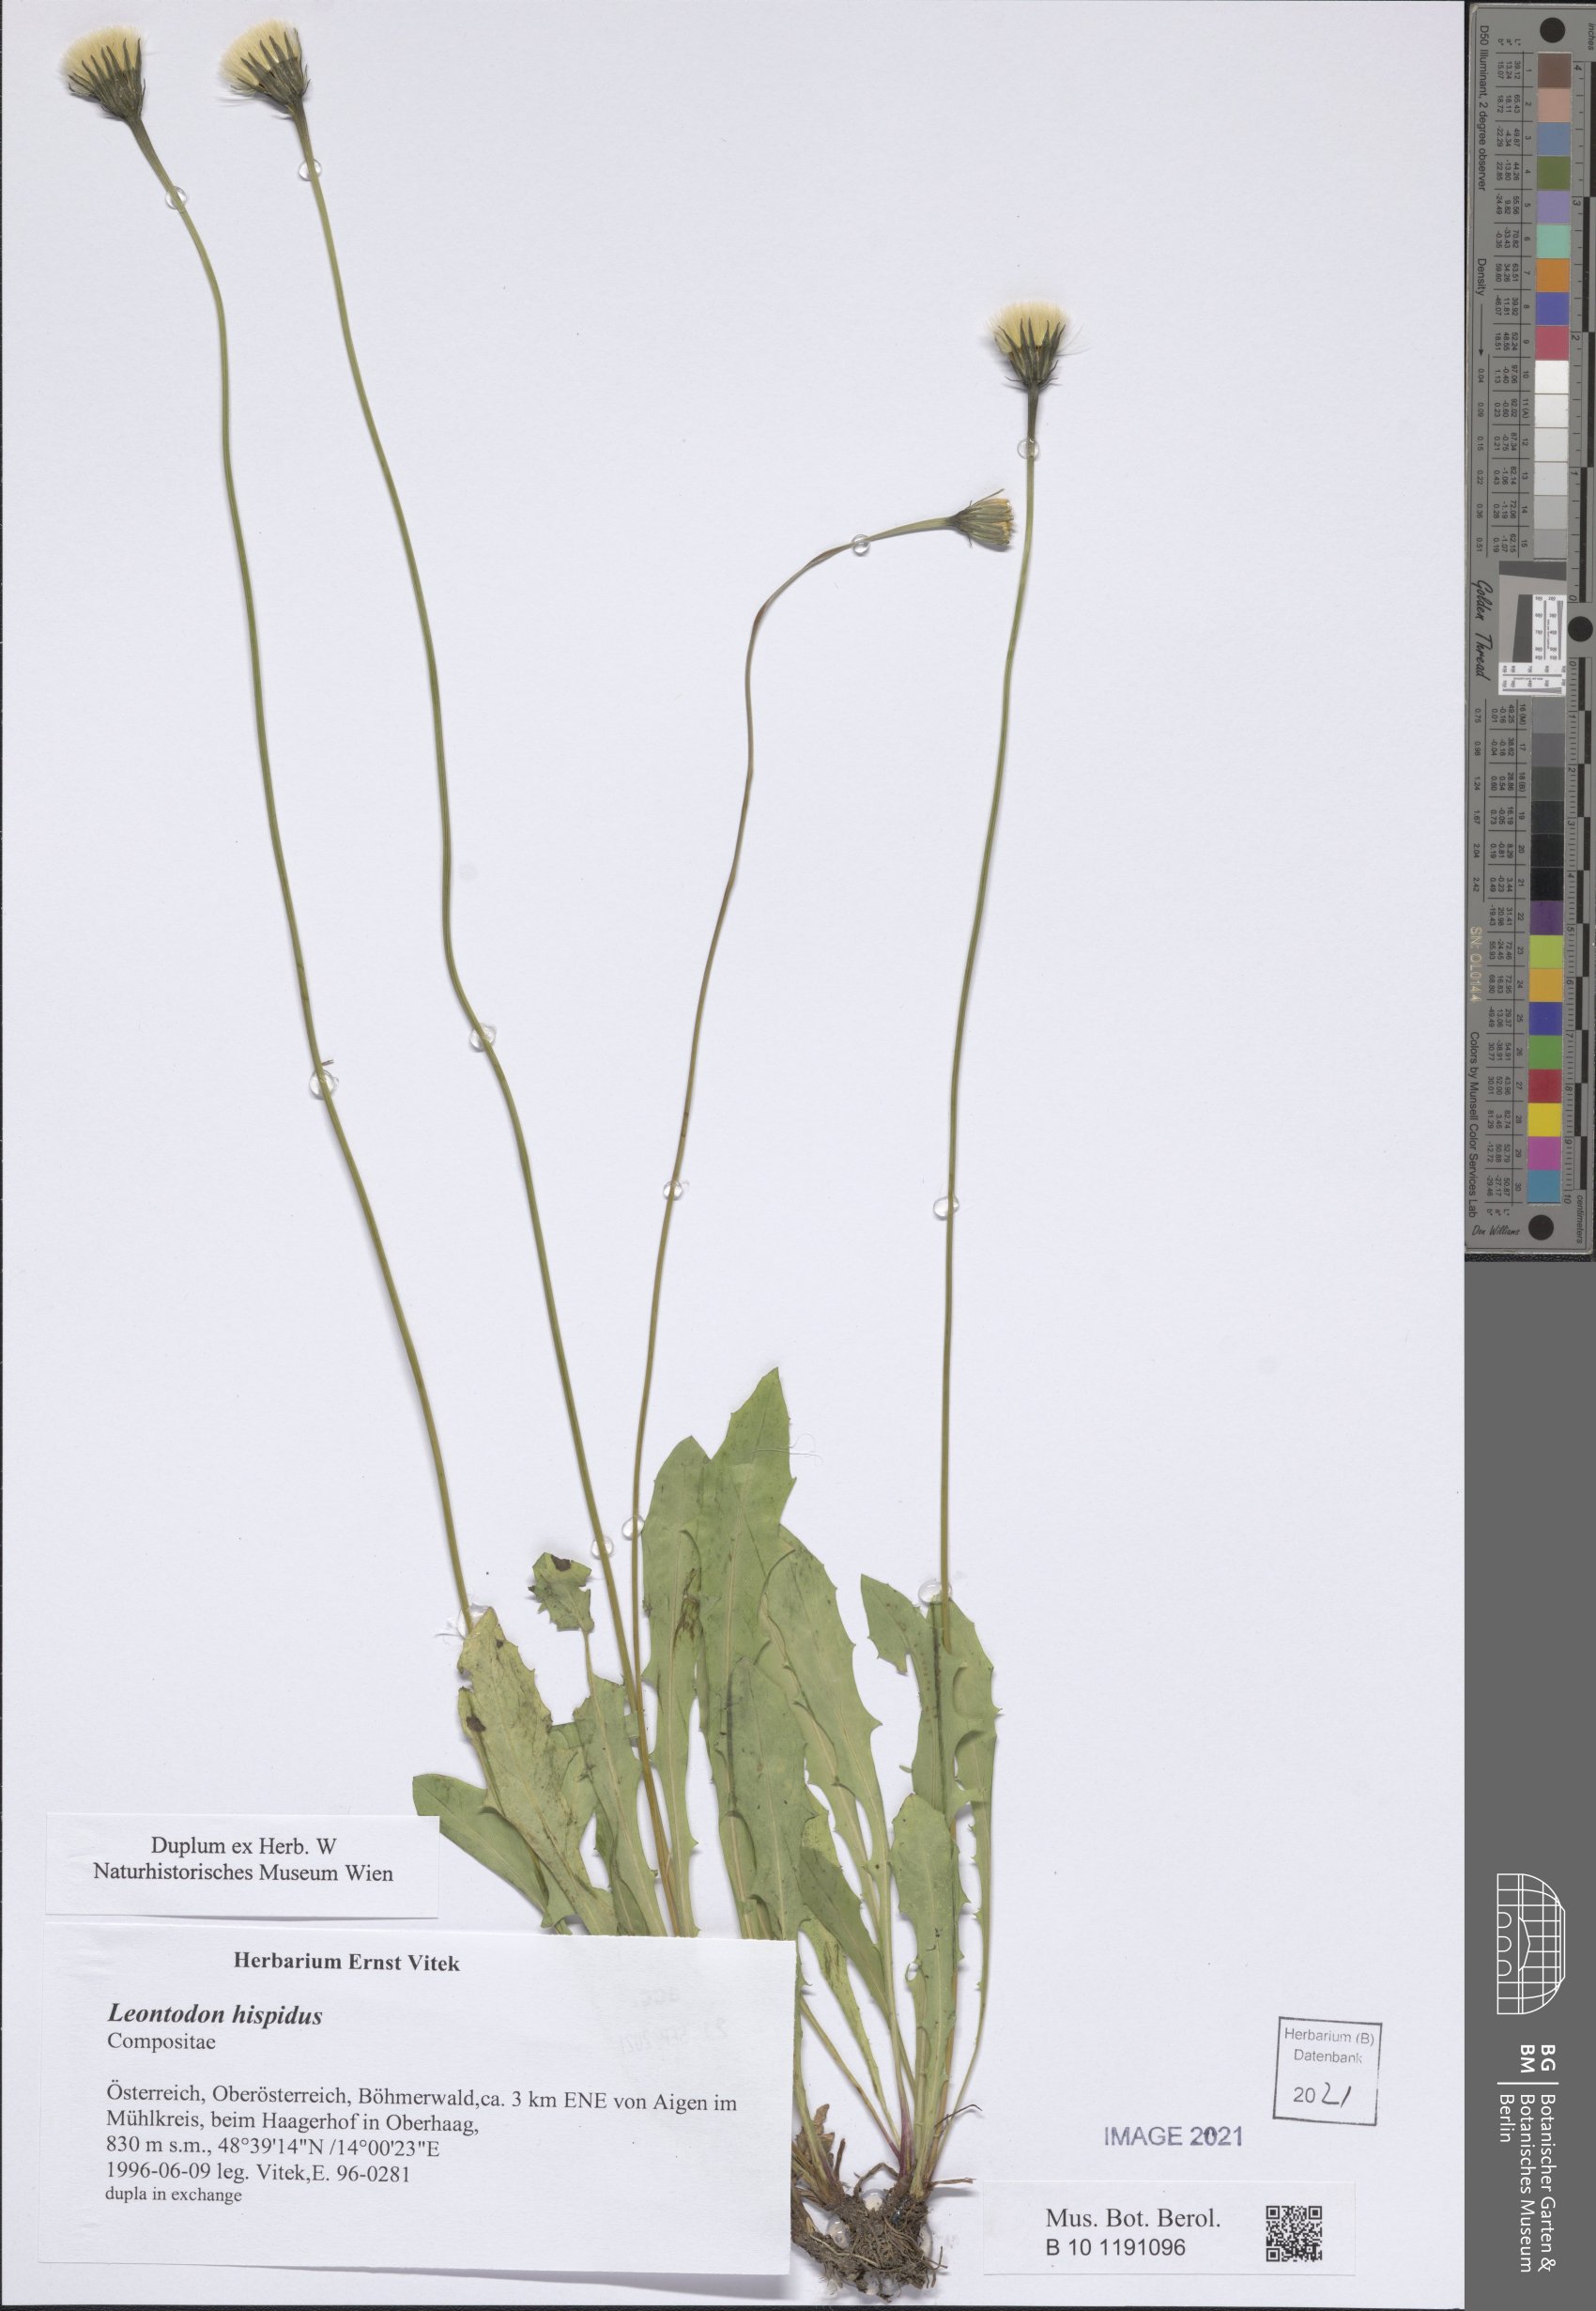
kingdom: Plantae
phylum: Tracheophyta
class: Magnoliopsida
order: Asterales
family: Asteraceae
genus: Leontodon
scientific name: Leontodon hispidus
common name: Rough hawkbit
